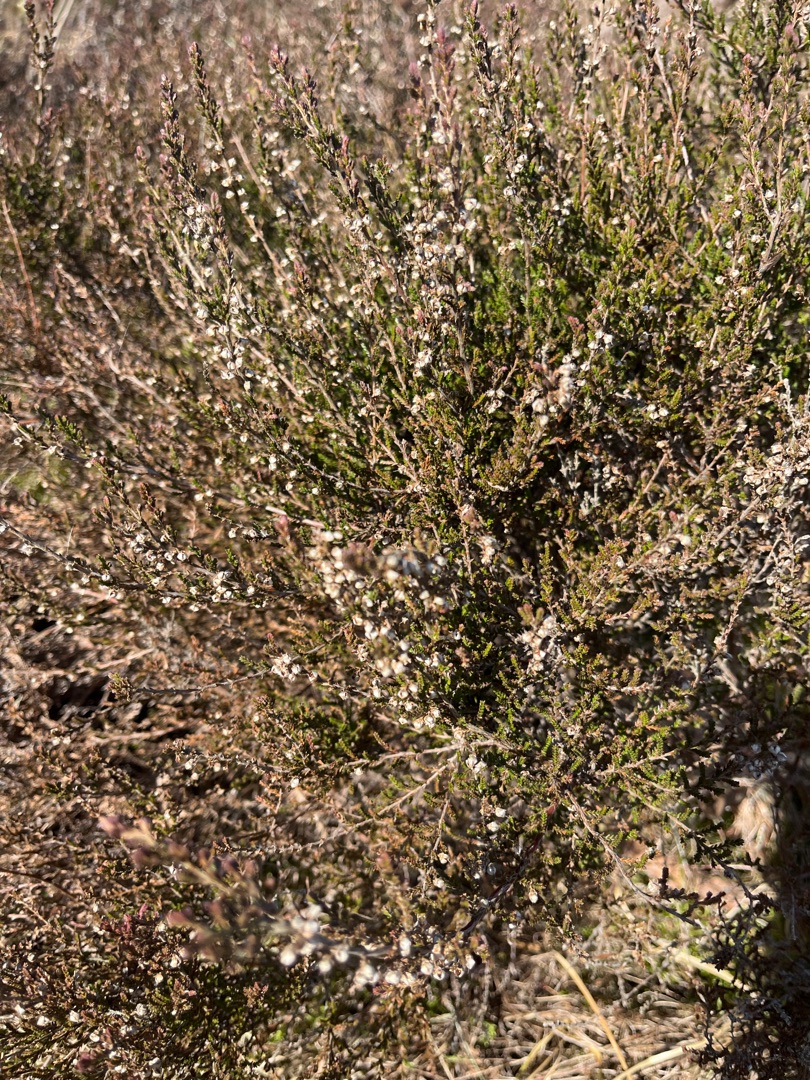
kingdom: Plantae
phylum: Tracheophyta
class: Magnoliopsida
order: Ericales
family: Ericaceae
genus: Calluna
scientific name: Calluna vulgaris
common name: Hedelyng
